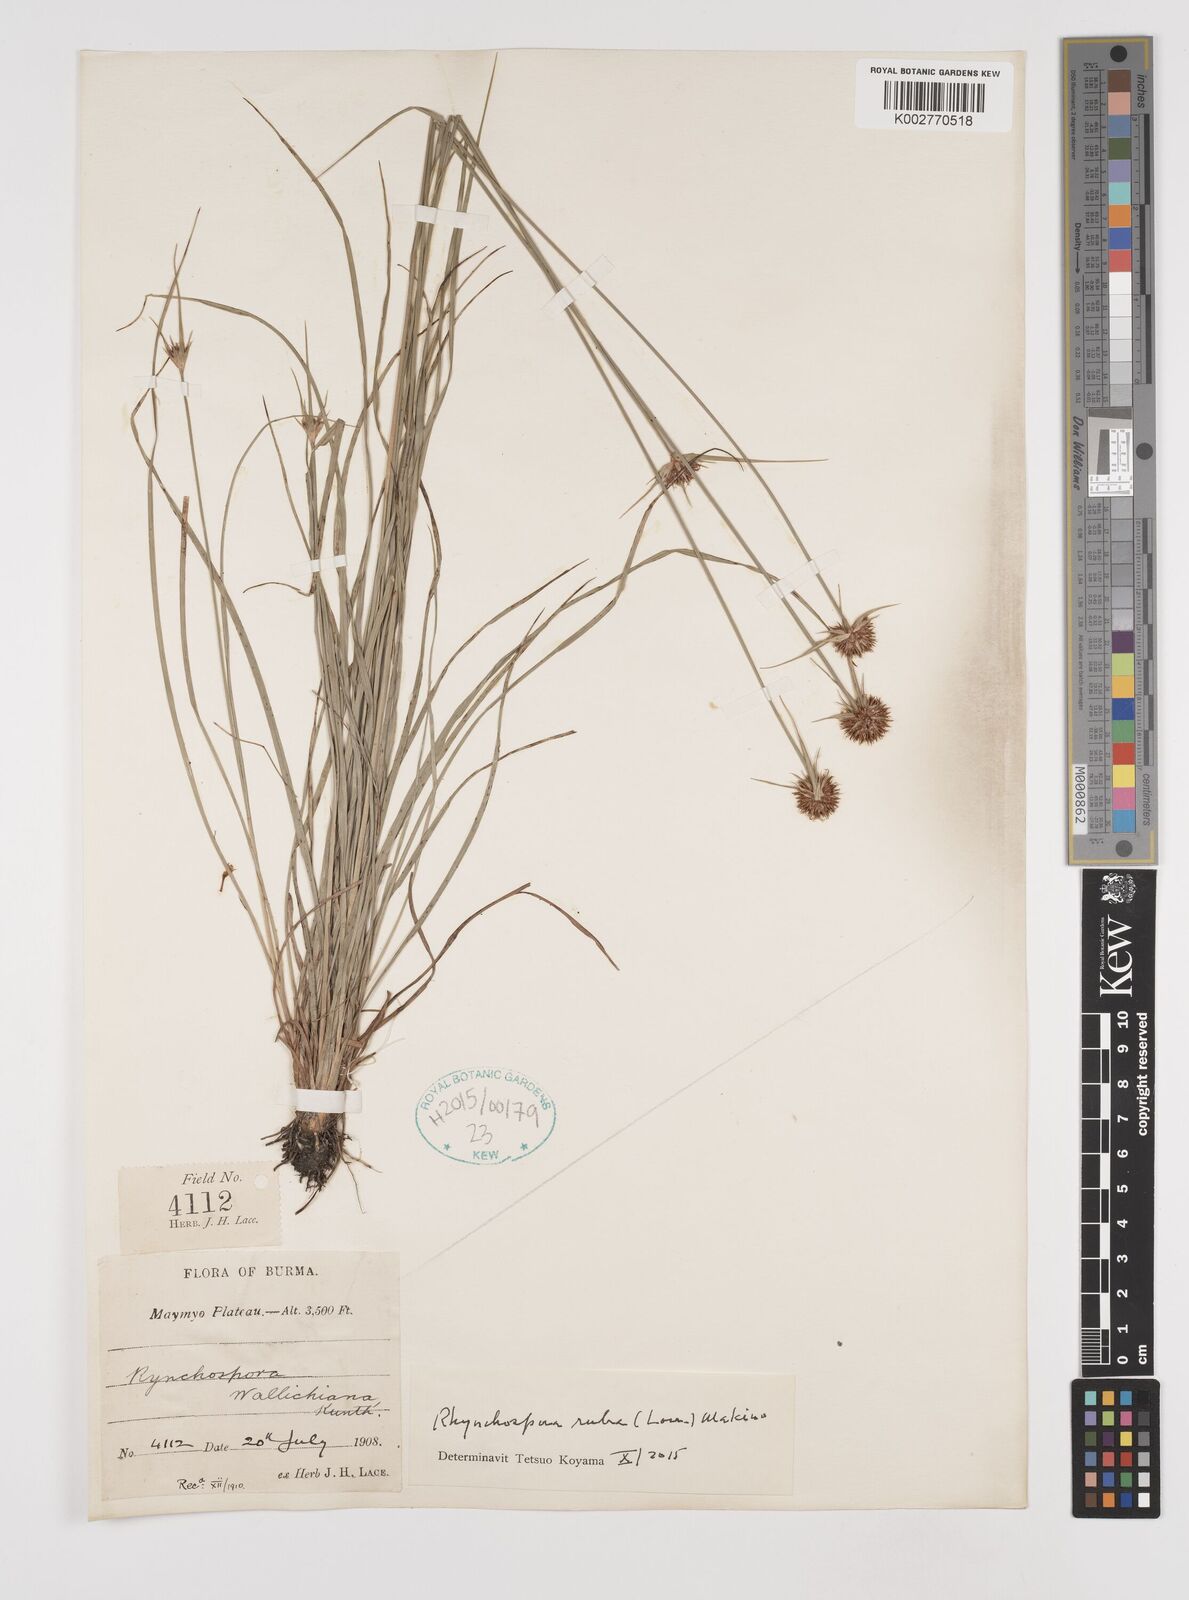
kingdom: Plantae
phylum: Tracheophyta
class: Liliopsida
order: Poales
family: Cyperaceae
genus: Rhynchospora
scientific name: Rhynchospora rubra
